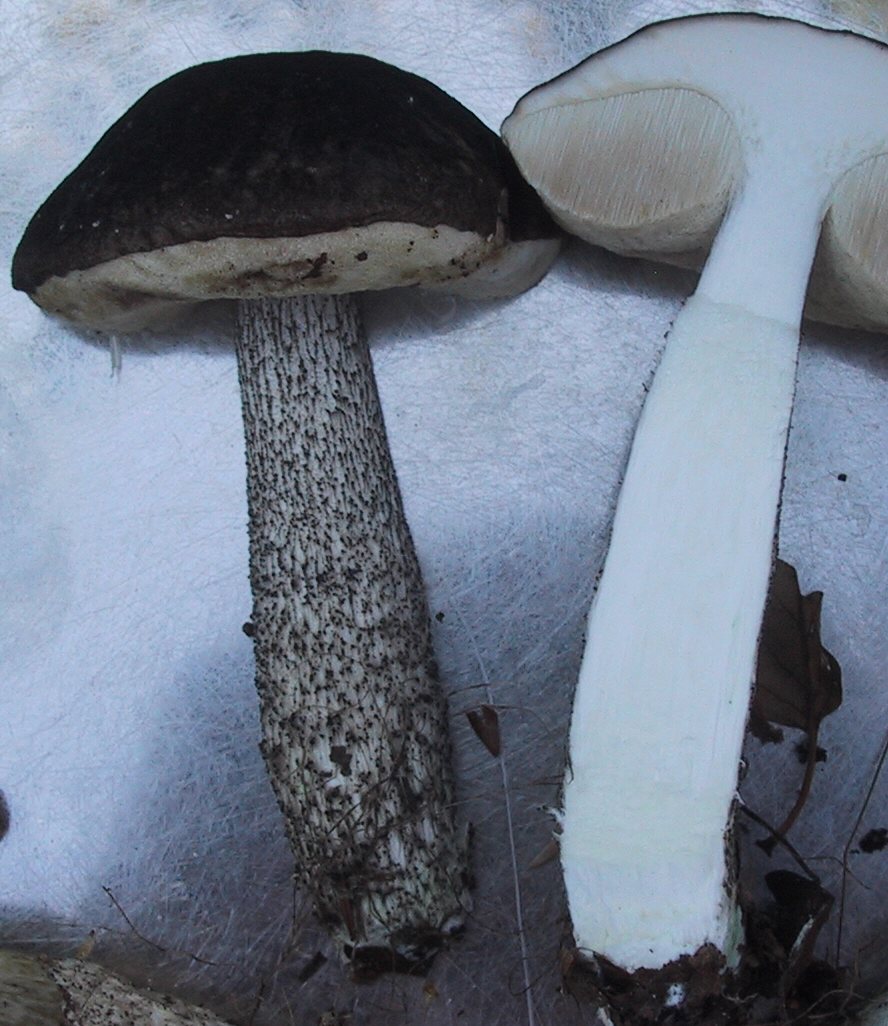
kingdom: Fungi
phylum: Basidiomycota
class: Agaricomycetes
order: Boletales
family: Boletaceae
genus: Leccinum
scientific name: Leccinum variicolor
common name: flammet skælrørhat
